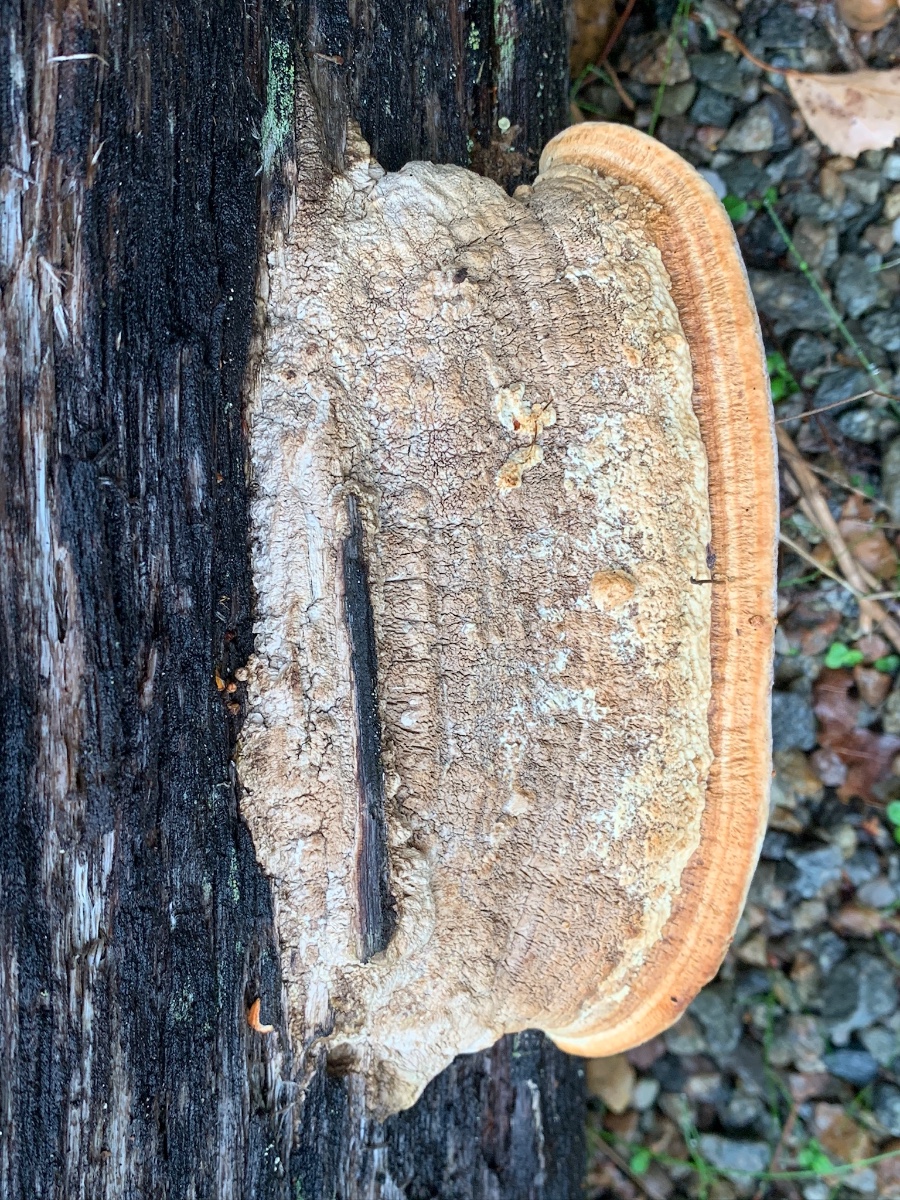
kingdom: Fungi
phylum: Basidiomycota
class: Agaricomycetes
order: Polyporales
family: Fomitopsidaceae
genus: Daedalea
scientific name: Daedalea quercina
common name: ege-labyrintsvamp
